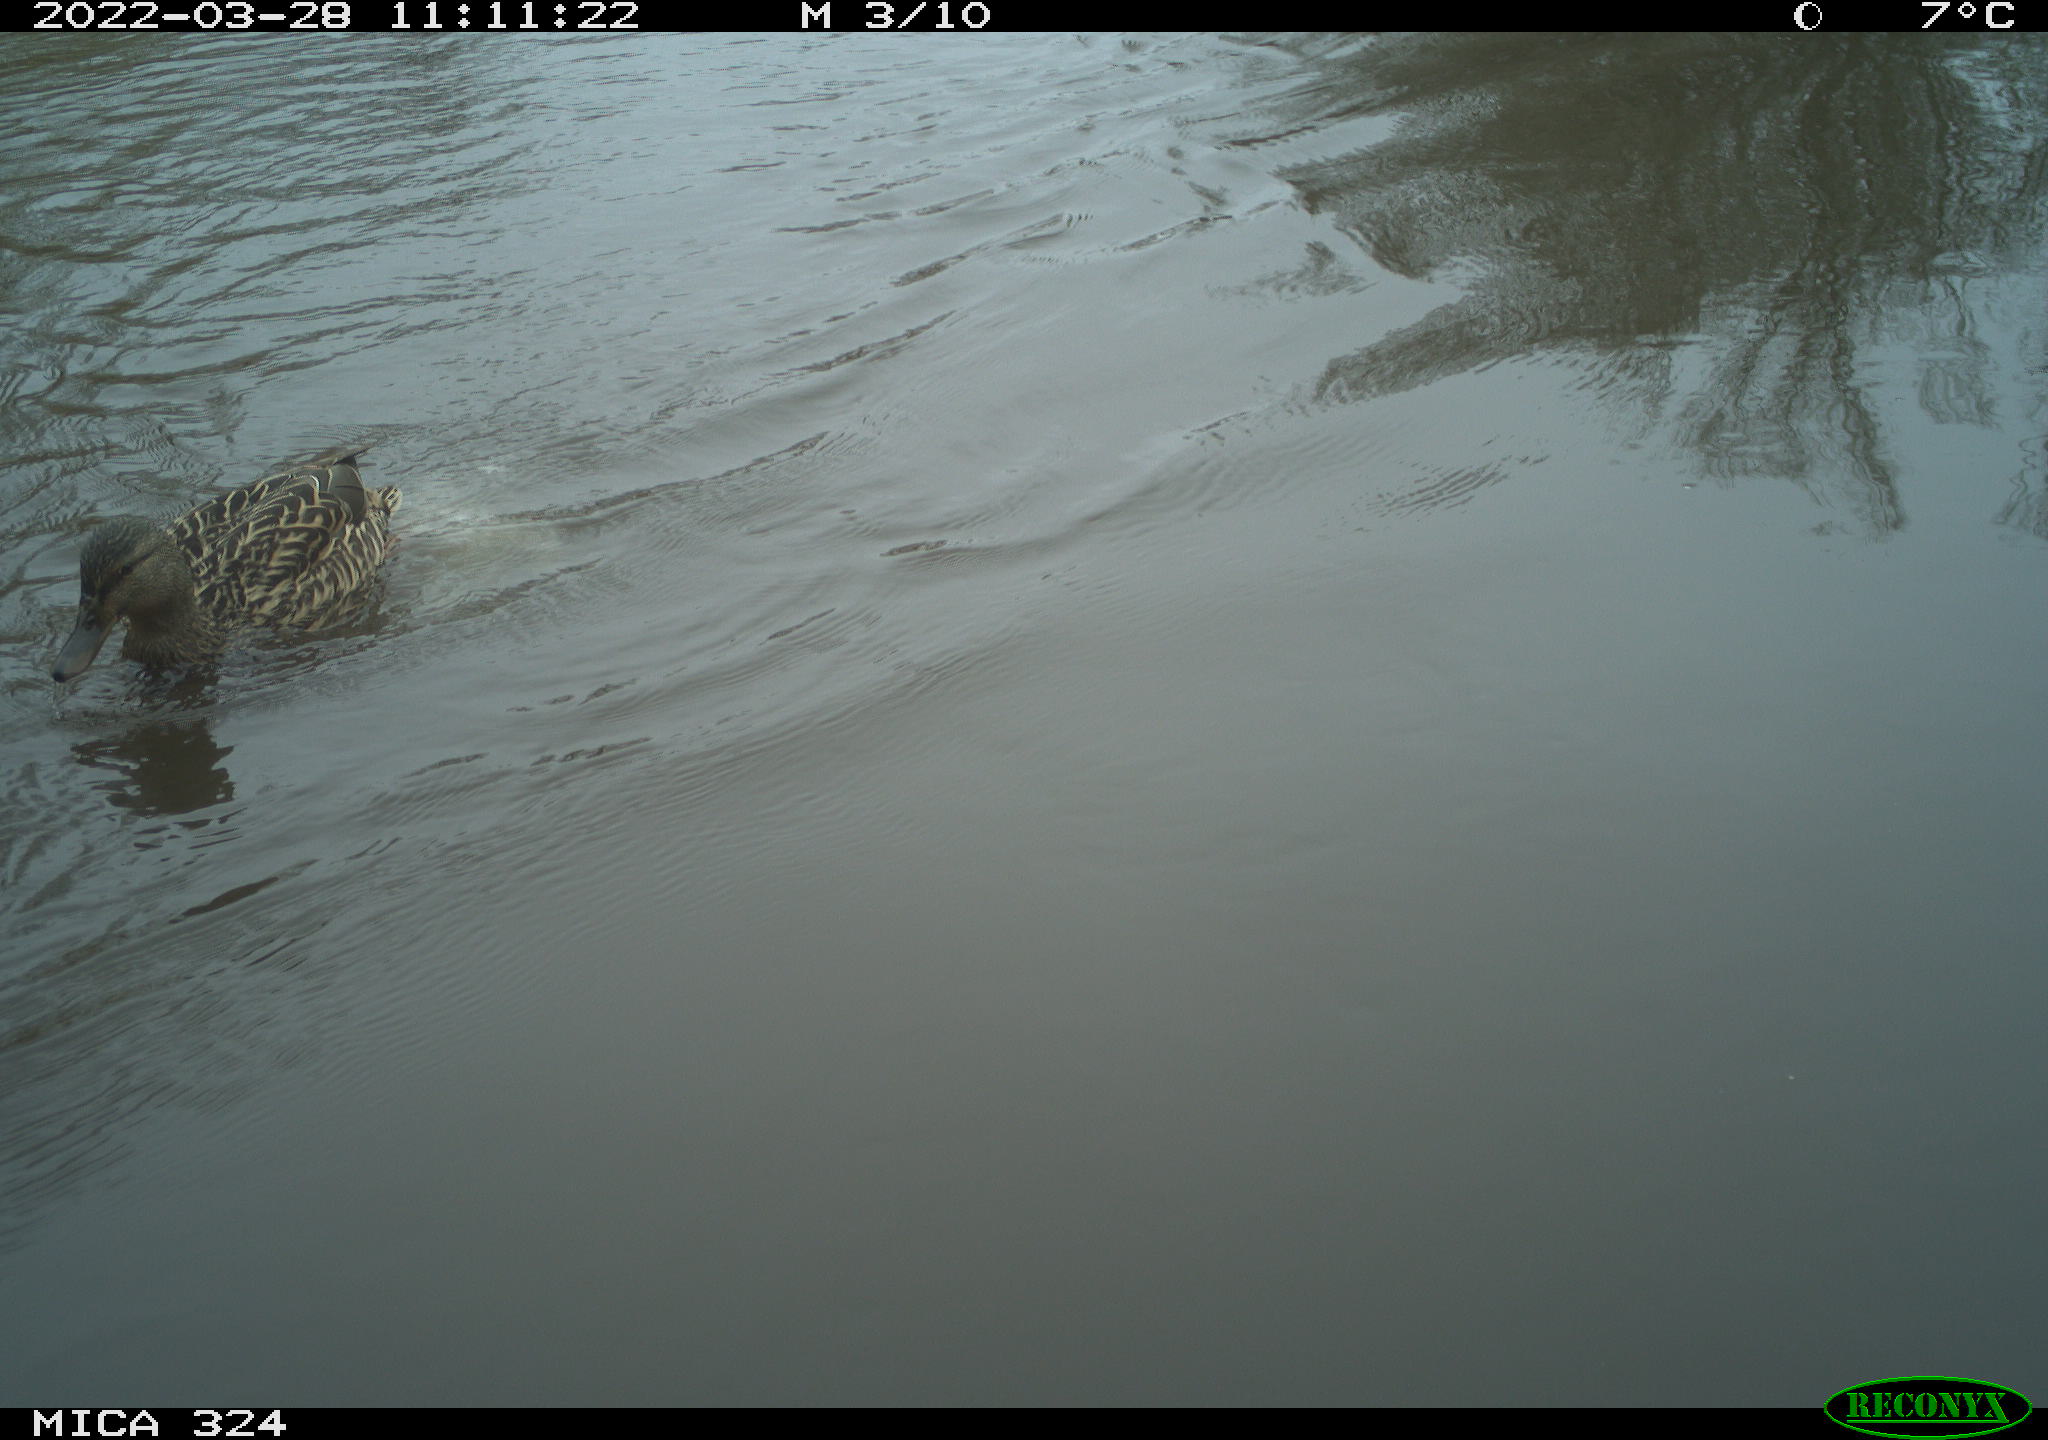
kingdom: Animalia
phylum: Chordata
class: Aves
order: Anseriformes
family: Anatidae
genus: Anas
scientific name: Anas platyrhynchos
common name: Mallard
